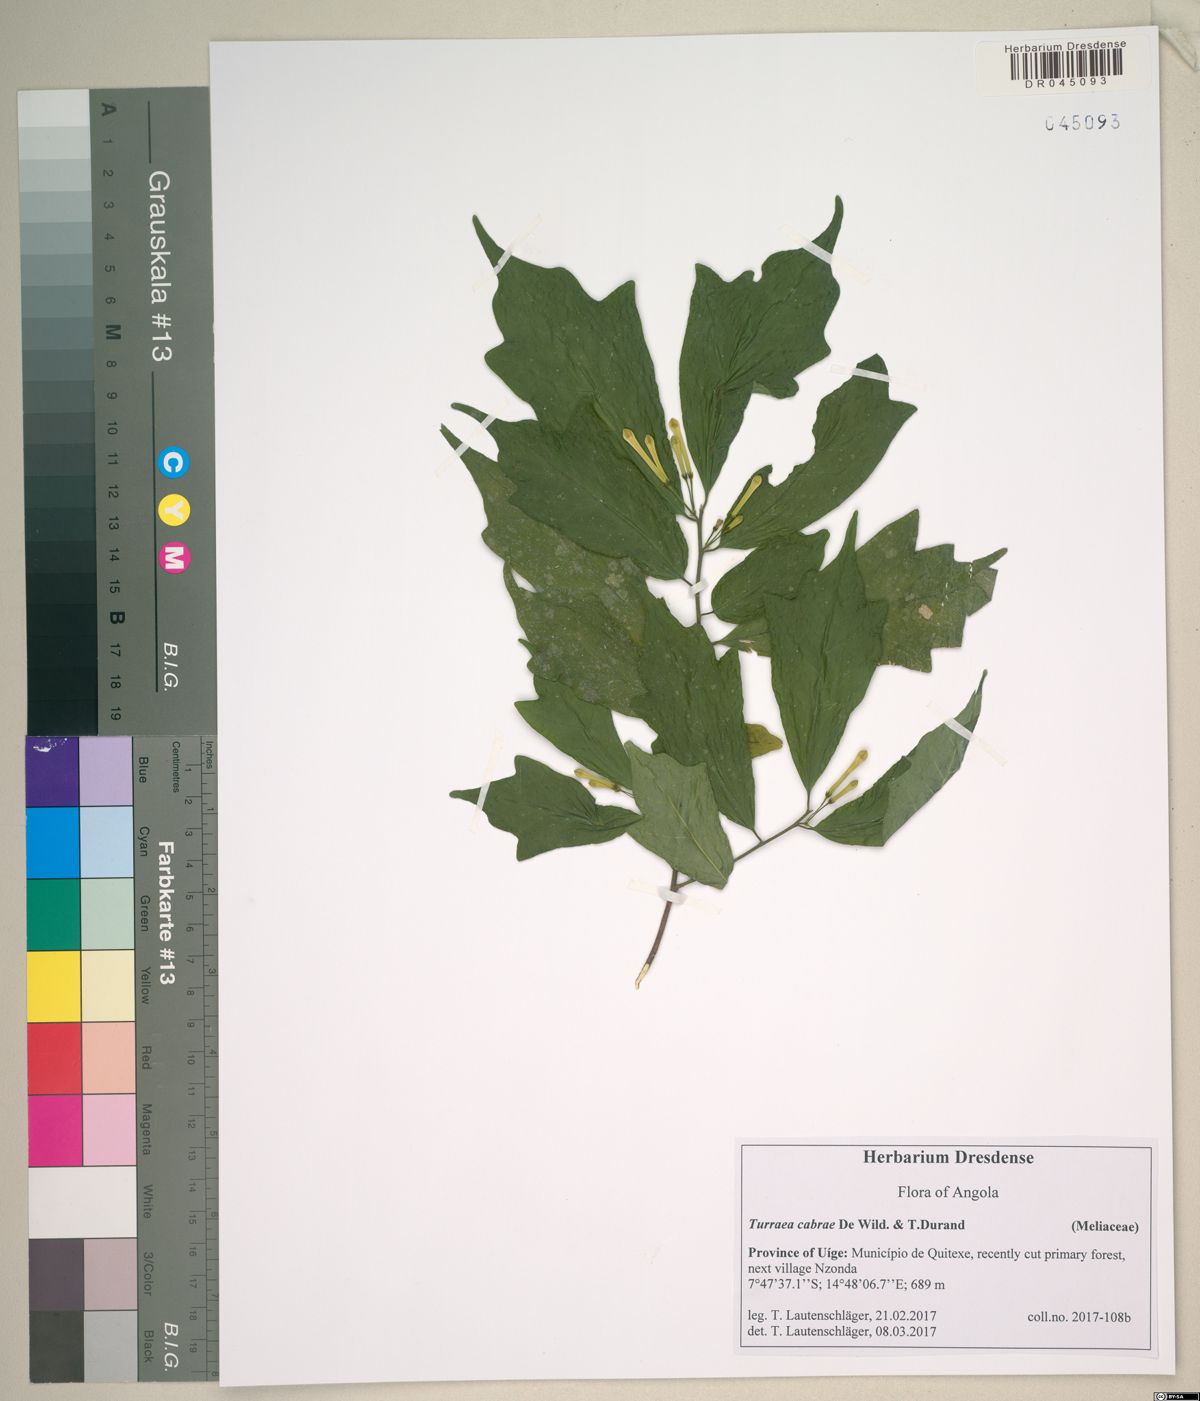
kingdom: Plantae
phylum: Tracheophyta
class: Magnoliopsida
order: Sapindales
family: Meliaceae
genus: Turraea
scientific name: Turraea cabrae
